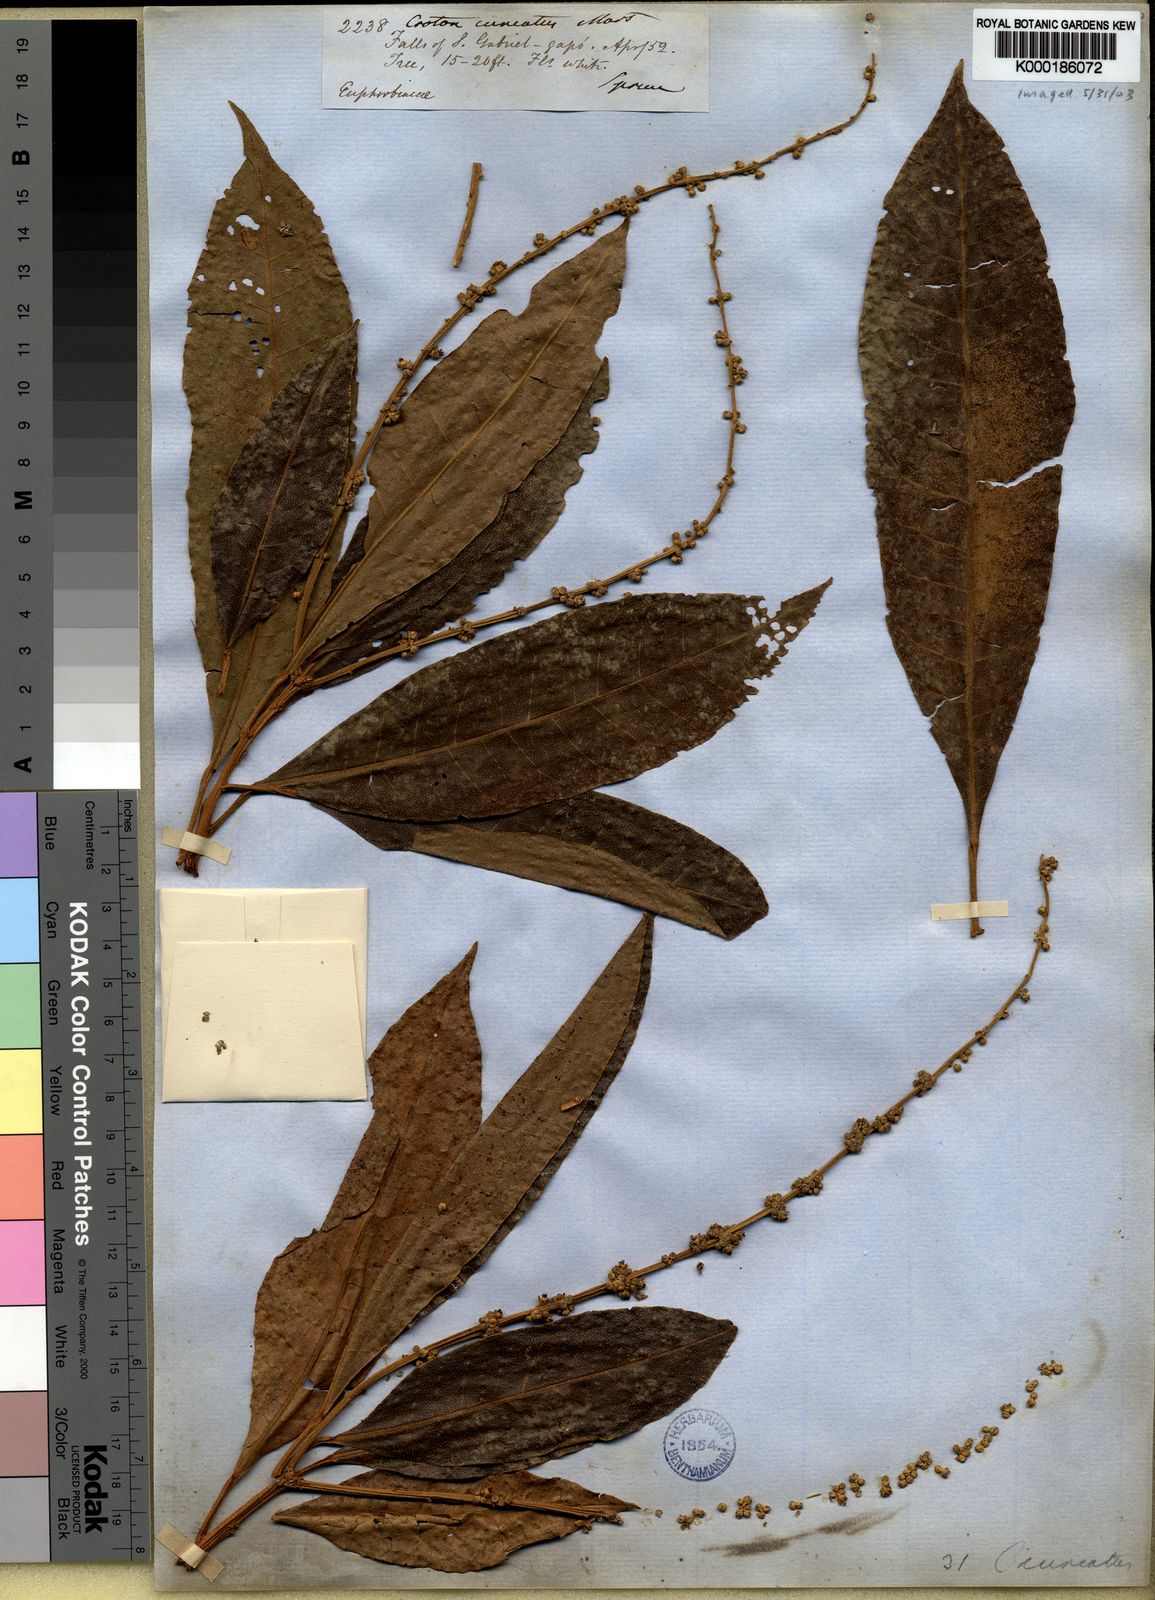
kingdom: Plantae
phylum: Tracheophyta
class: Magnoliopsida
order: Malpighiales
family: Euphorbiaceae
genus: Croton
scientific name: Croton
